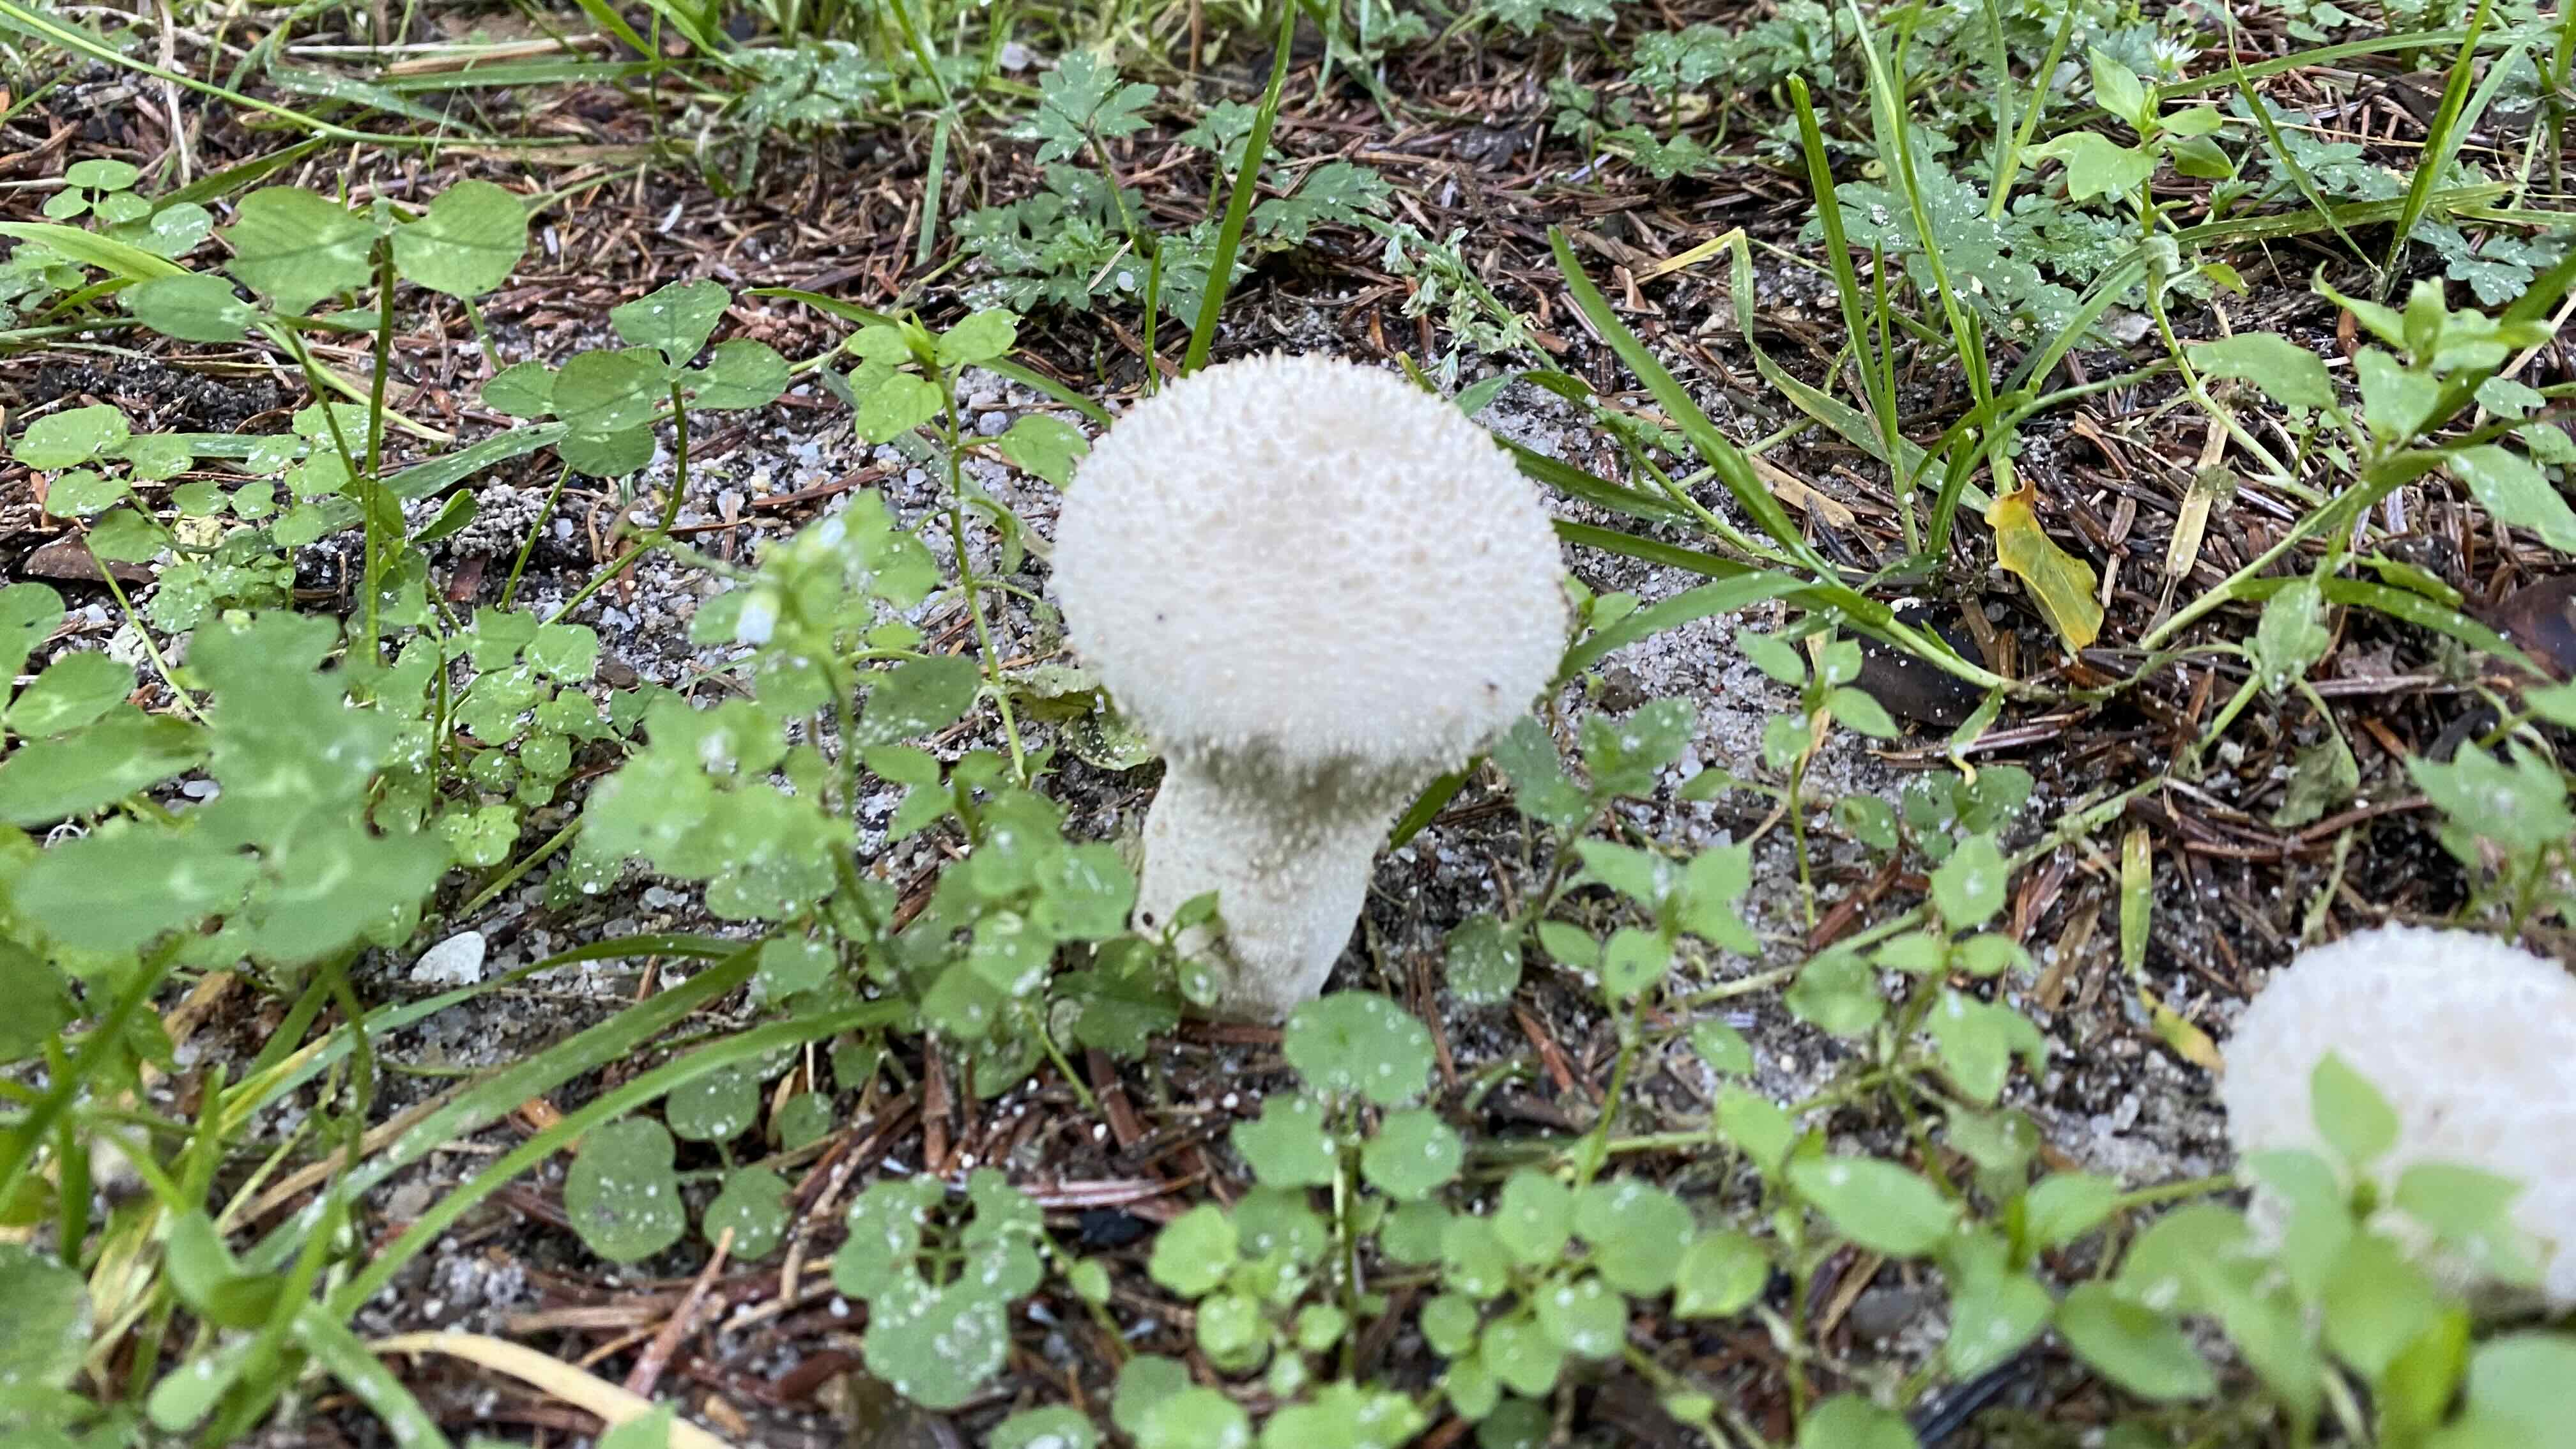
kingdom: Fungi
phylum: Basidiomycota
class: Agaricomycetes
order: Agaricales
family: Lycoperdaceae
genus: Lycoperdon
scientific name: Lycoperdon perlatum
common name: krystal-støvbold
